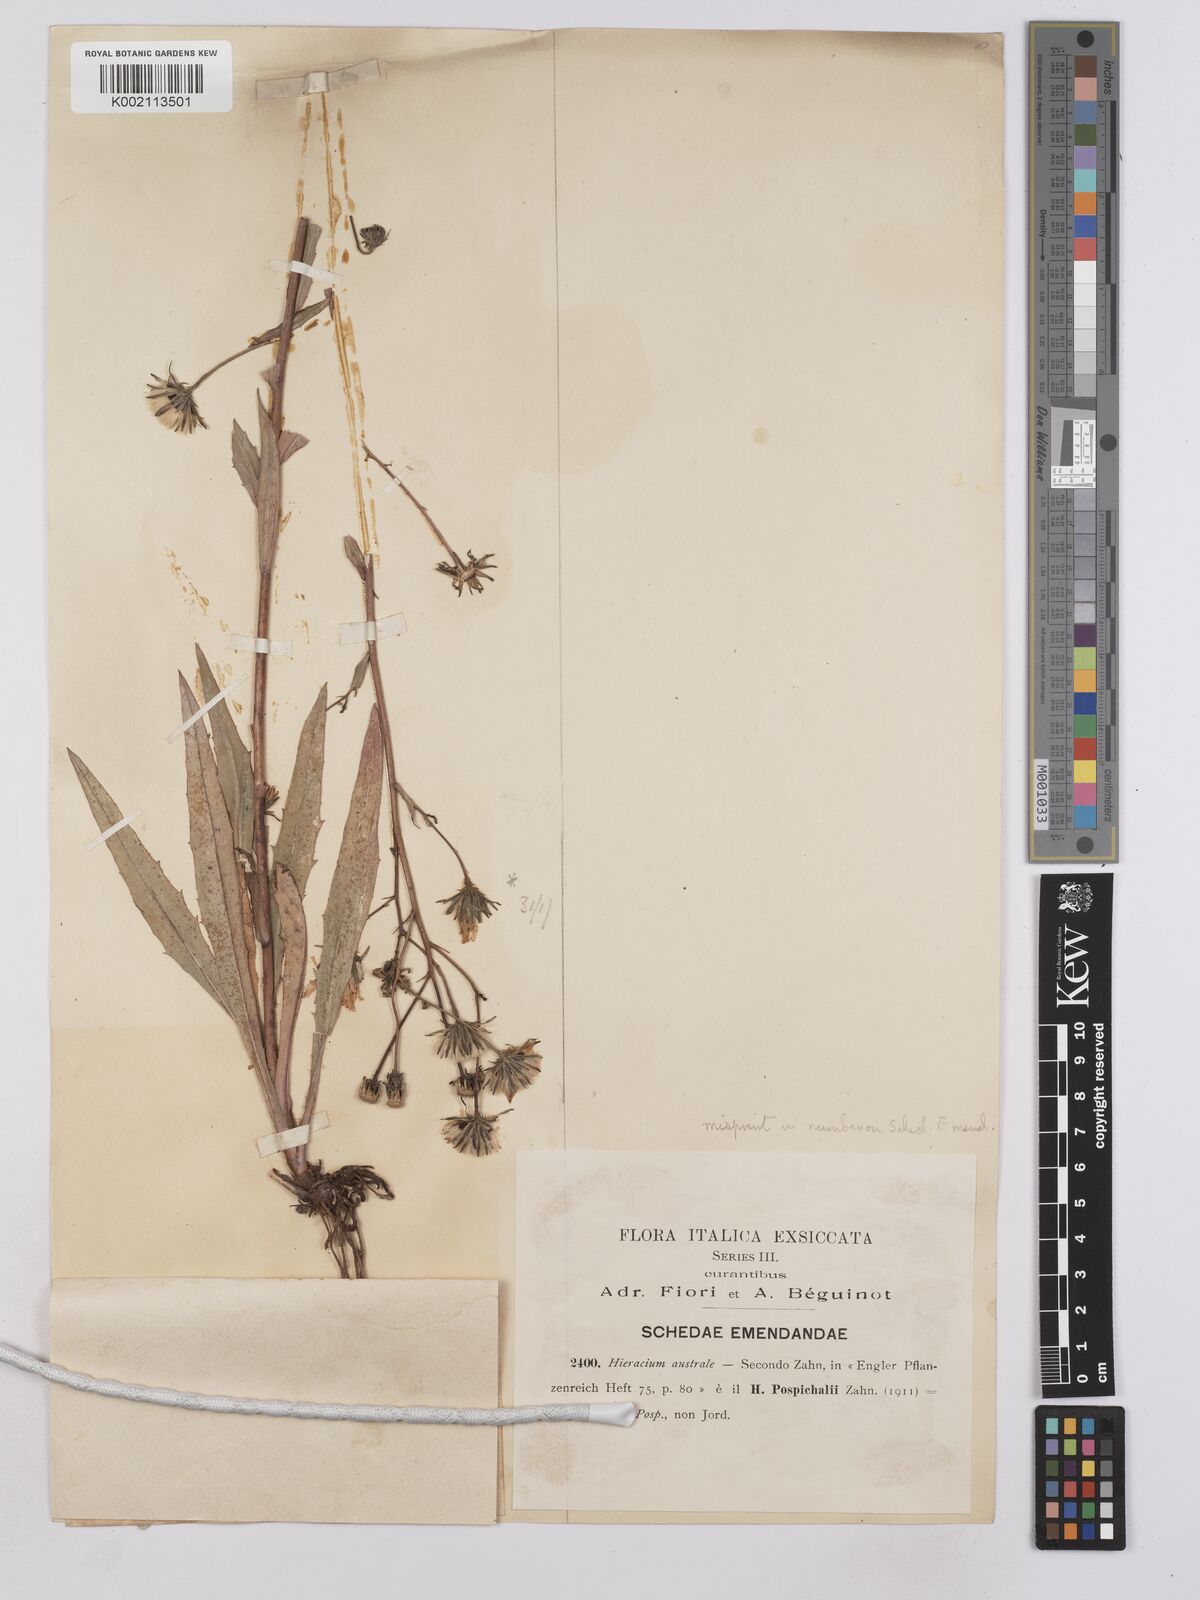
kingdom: Plantae
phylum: Tracheophyta
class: Magnoliopsida
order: Asterales
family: Asteraceae
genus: Hieracium
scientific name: Hieracium porrifolium
